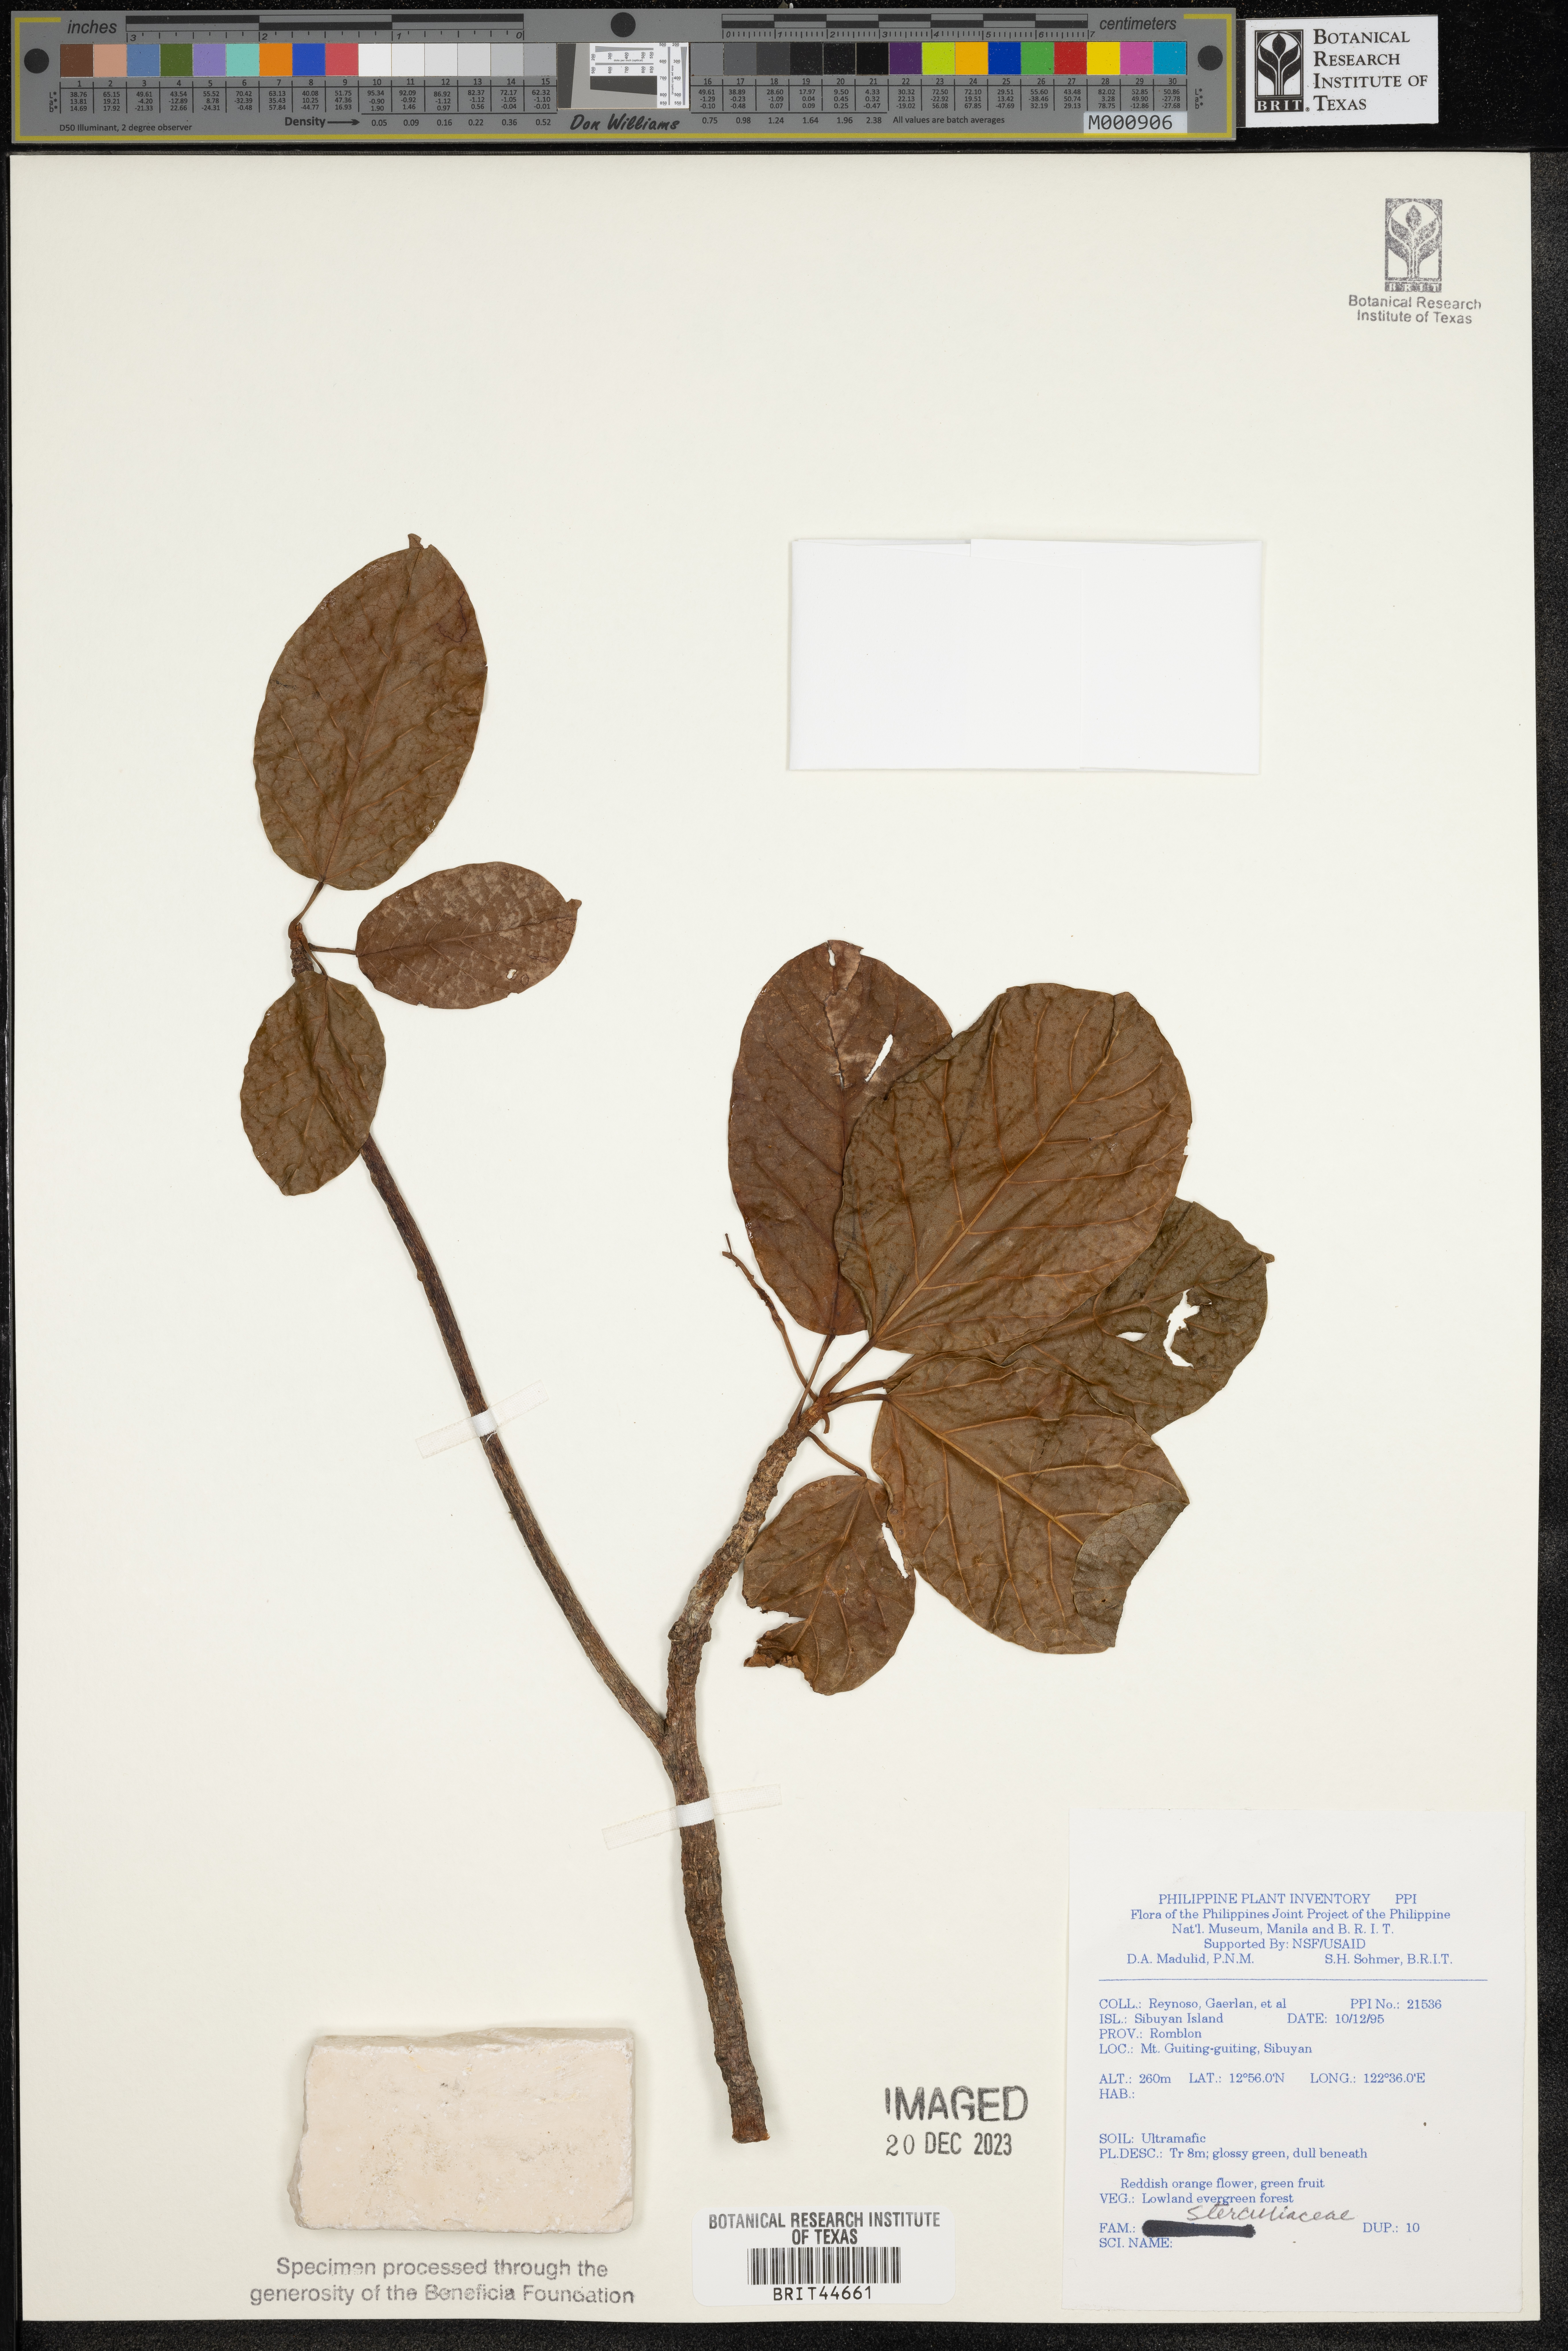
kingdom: Plantae
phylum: Tracheophyta
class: Magnoliopsida
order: Malvales
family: Sterculiaceae
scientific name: Sterculiaceae
